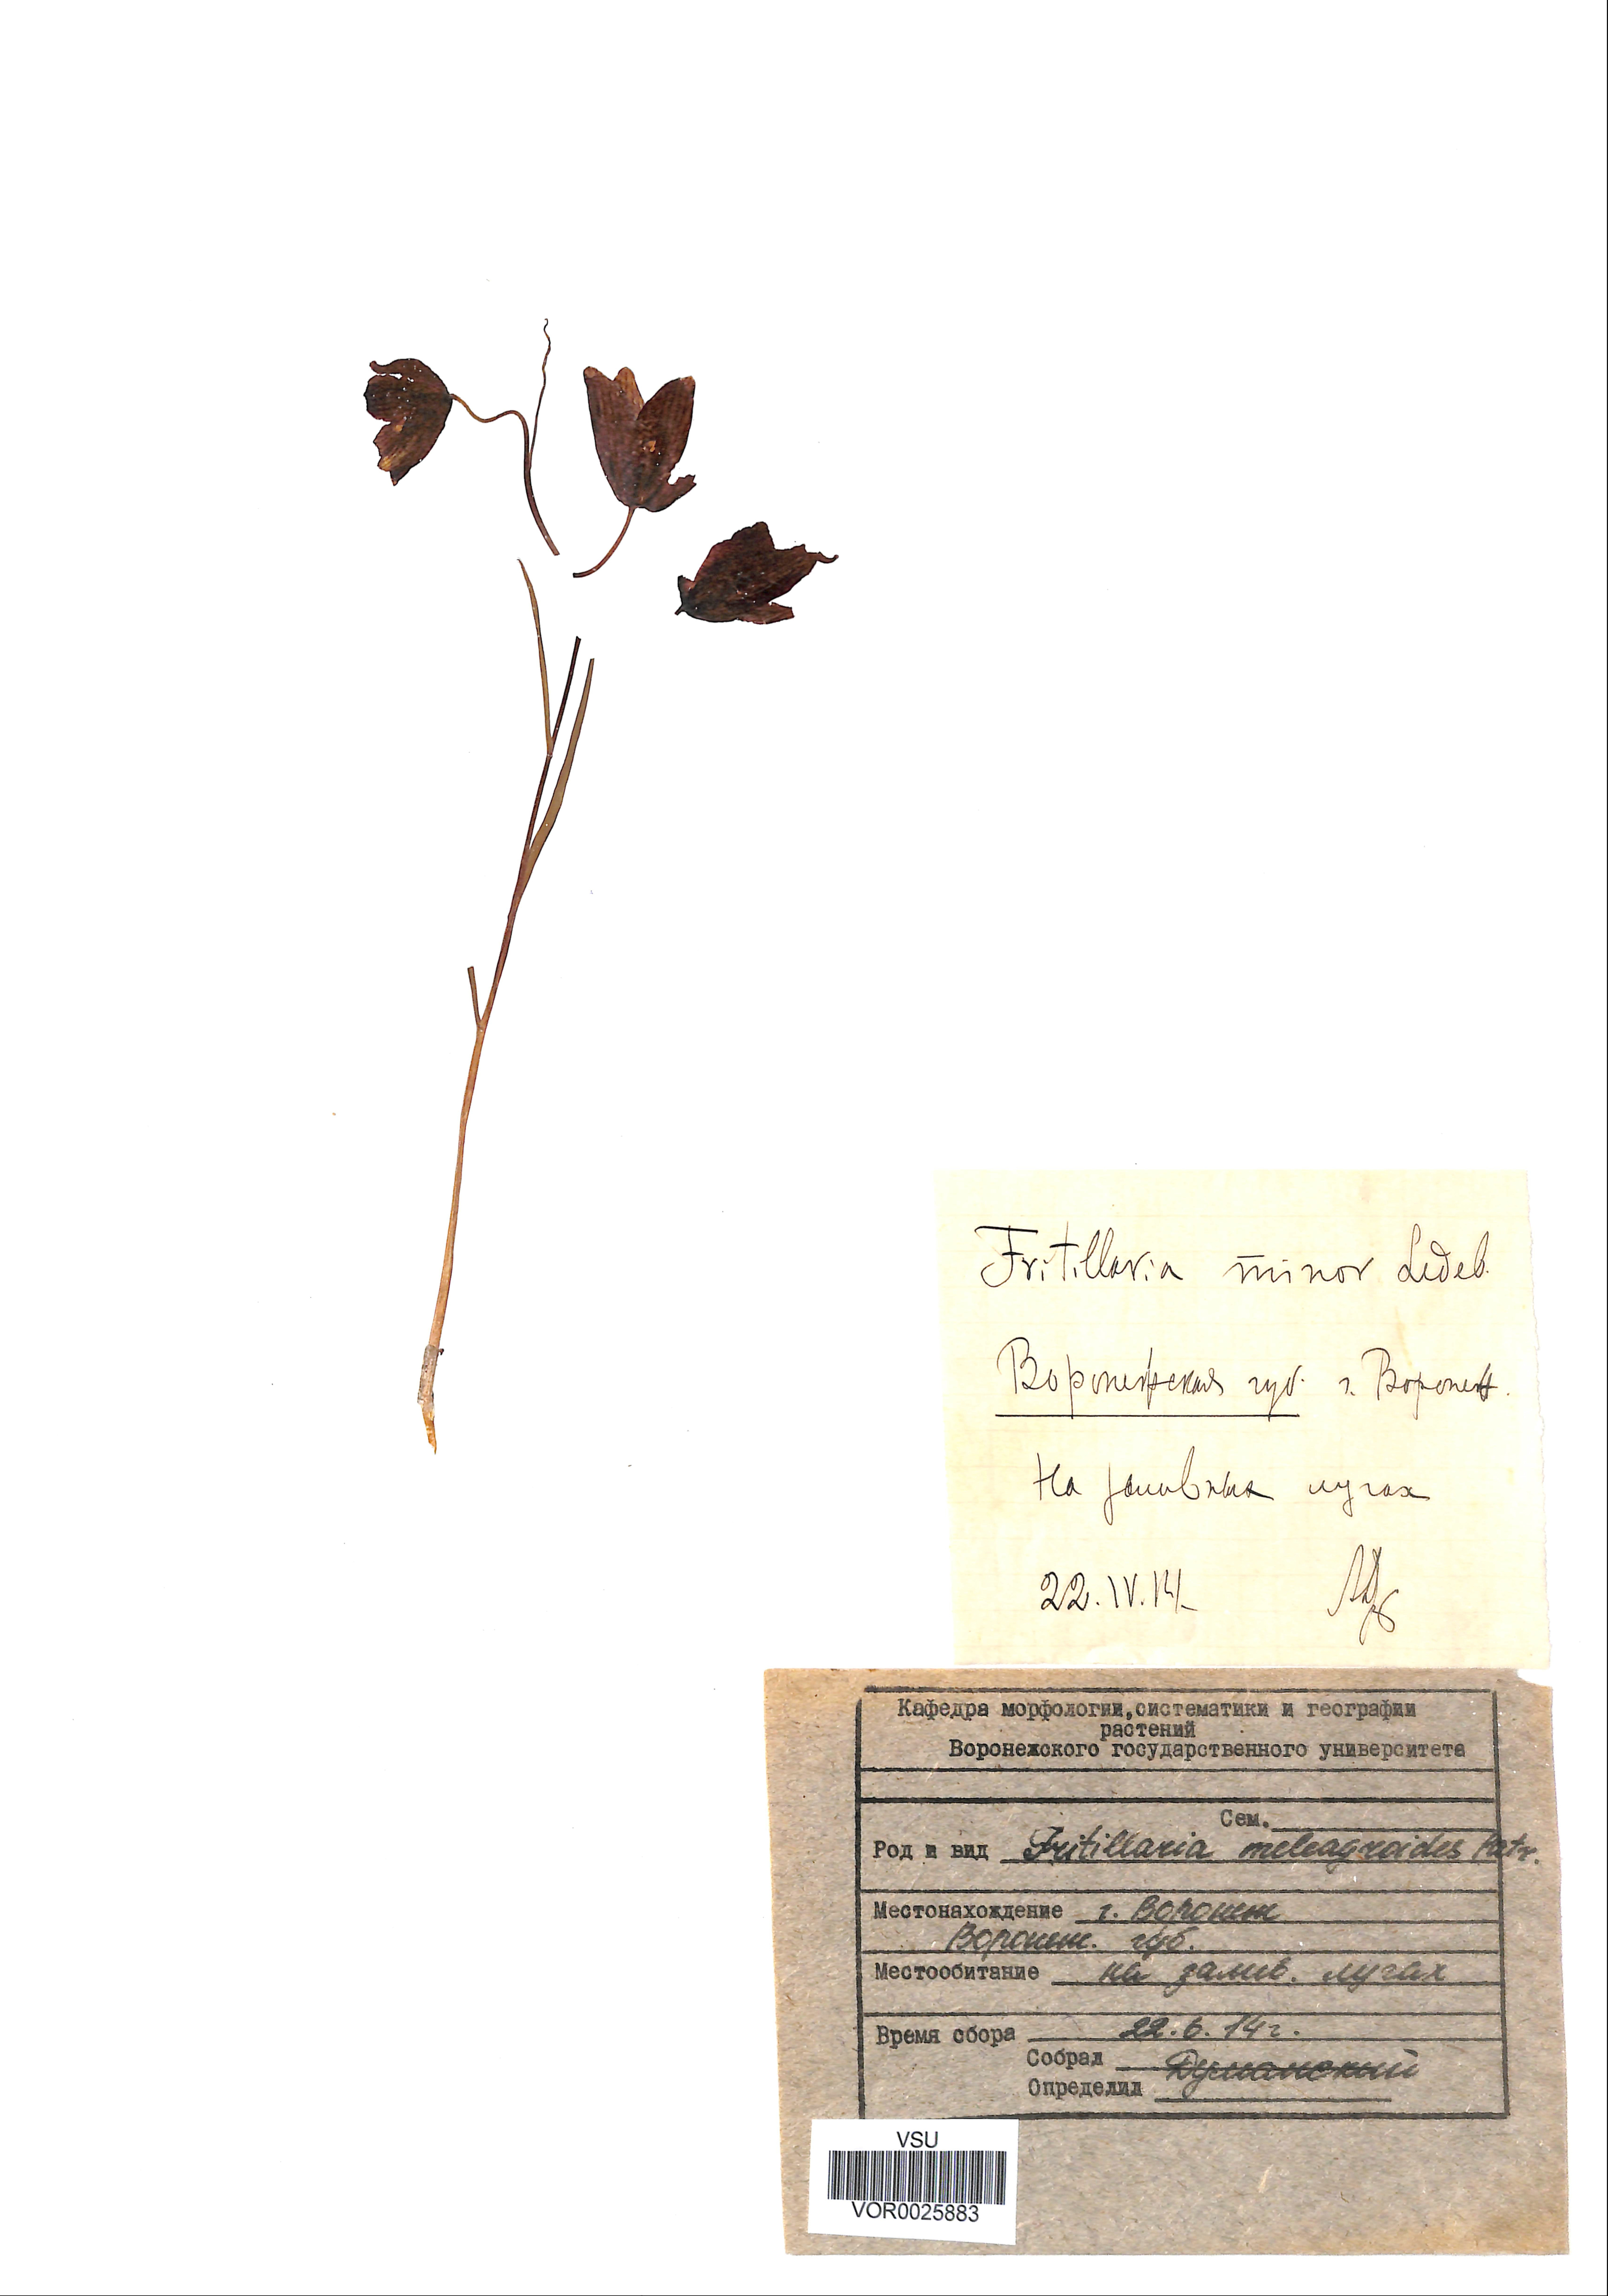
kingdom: Plantae
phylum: Tracheophyta
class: Liliopsida
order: Liliales
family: Liliaceae
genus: Fritillaria
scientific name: Fritillaria meleagroides
